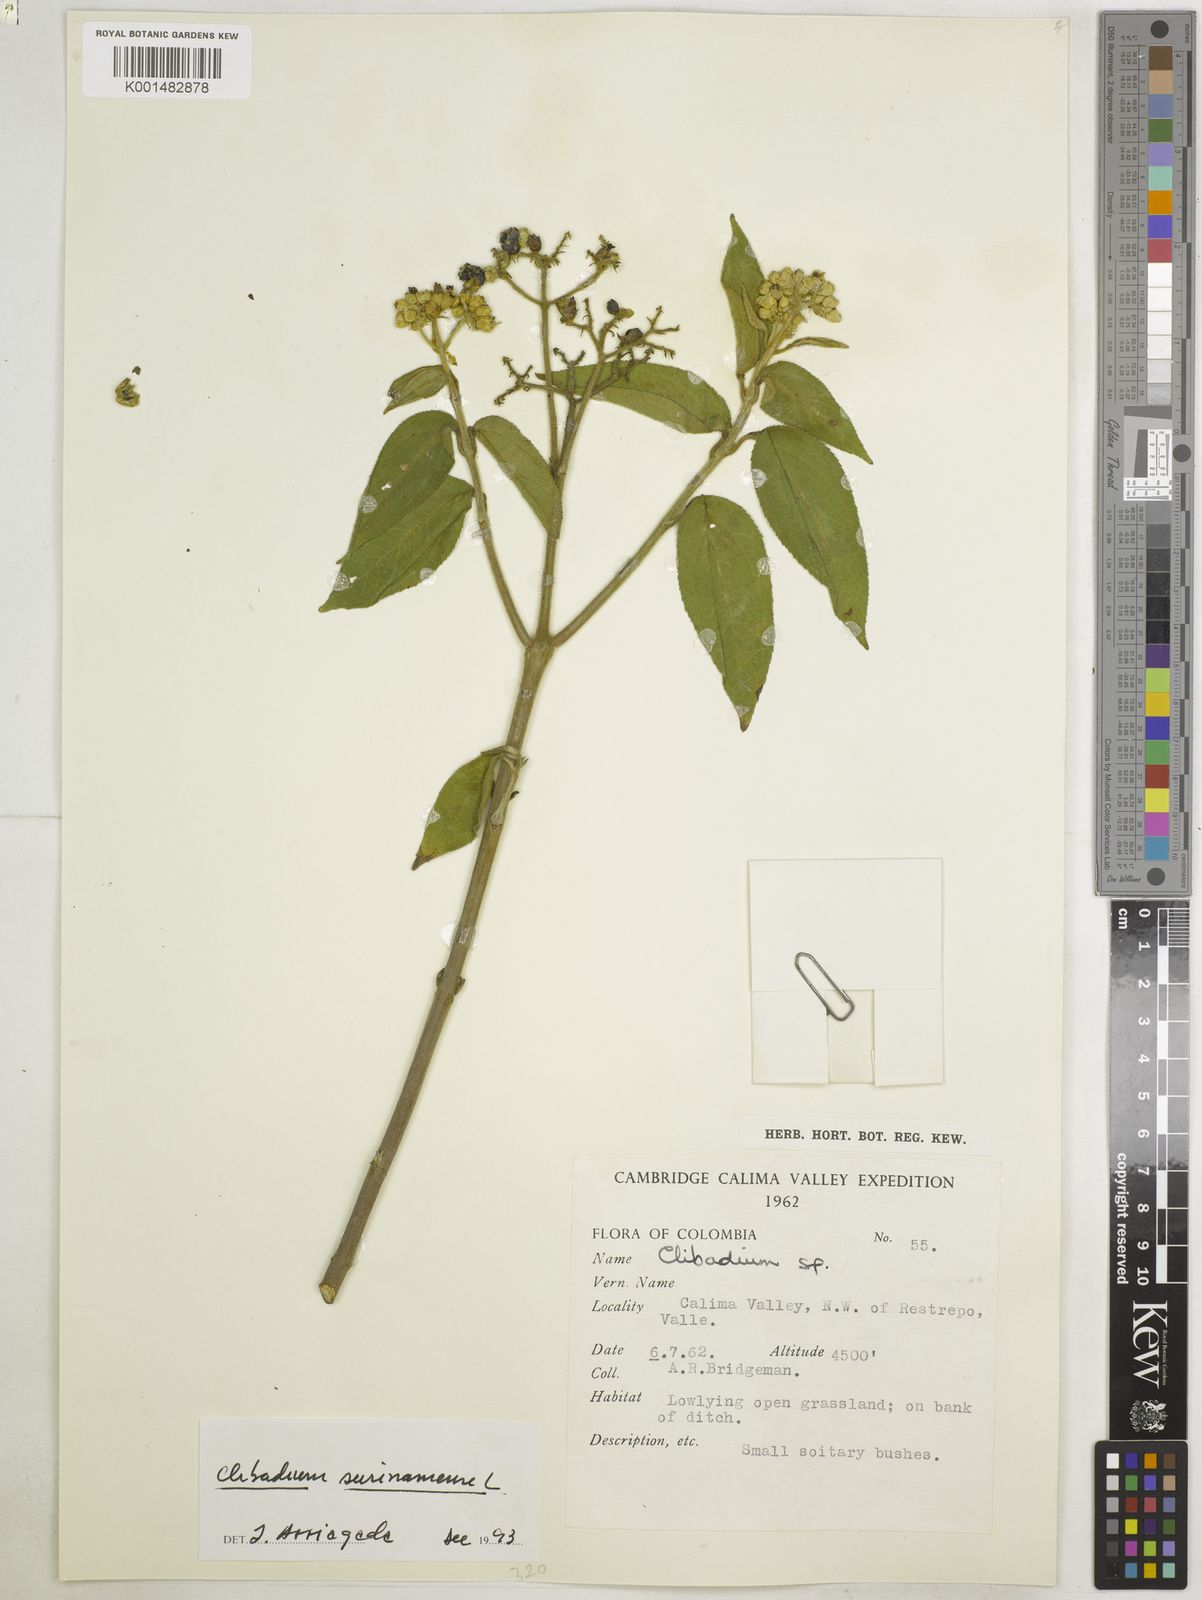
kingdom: Plantae
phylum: Tracheophyta
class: Magnoliopsida
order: Asterales
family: Asteraceae
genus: Clibadium
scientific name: Clibadium surinamense
